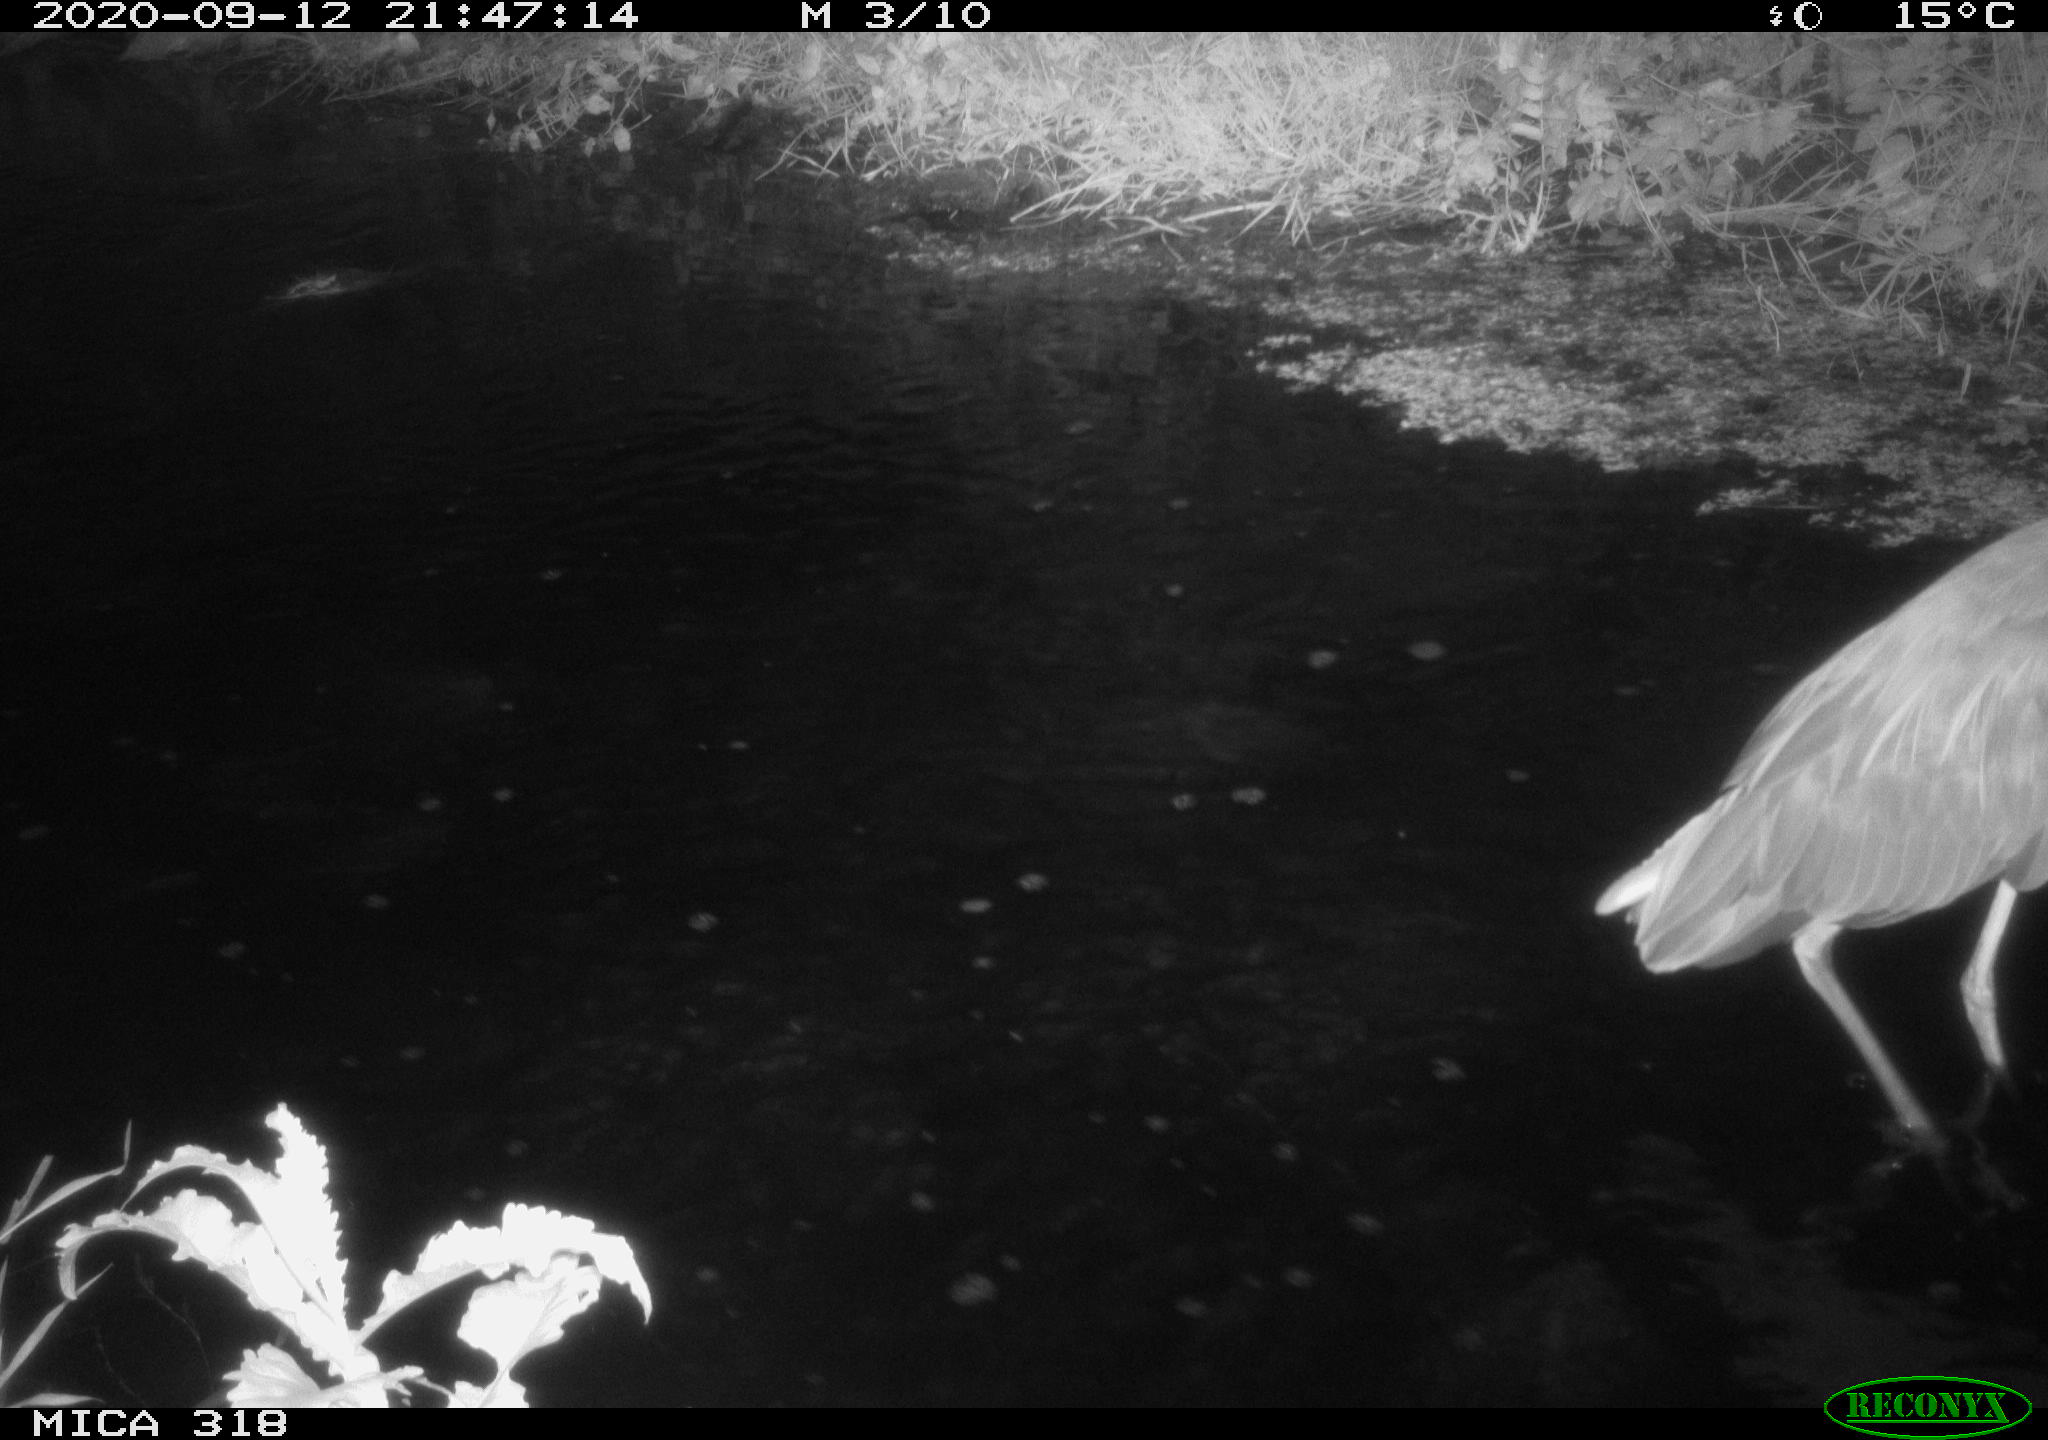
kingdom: Animalia
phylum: Chordata
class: Aves
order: Pelecaniformes
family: Ardeidae
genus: Ardea
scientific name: Ardea cinerea
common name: Grey heron
